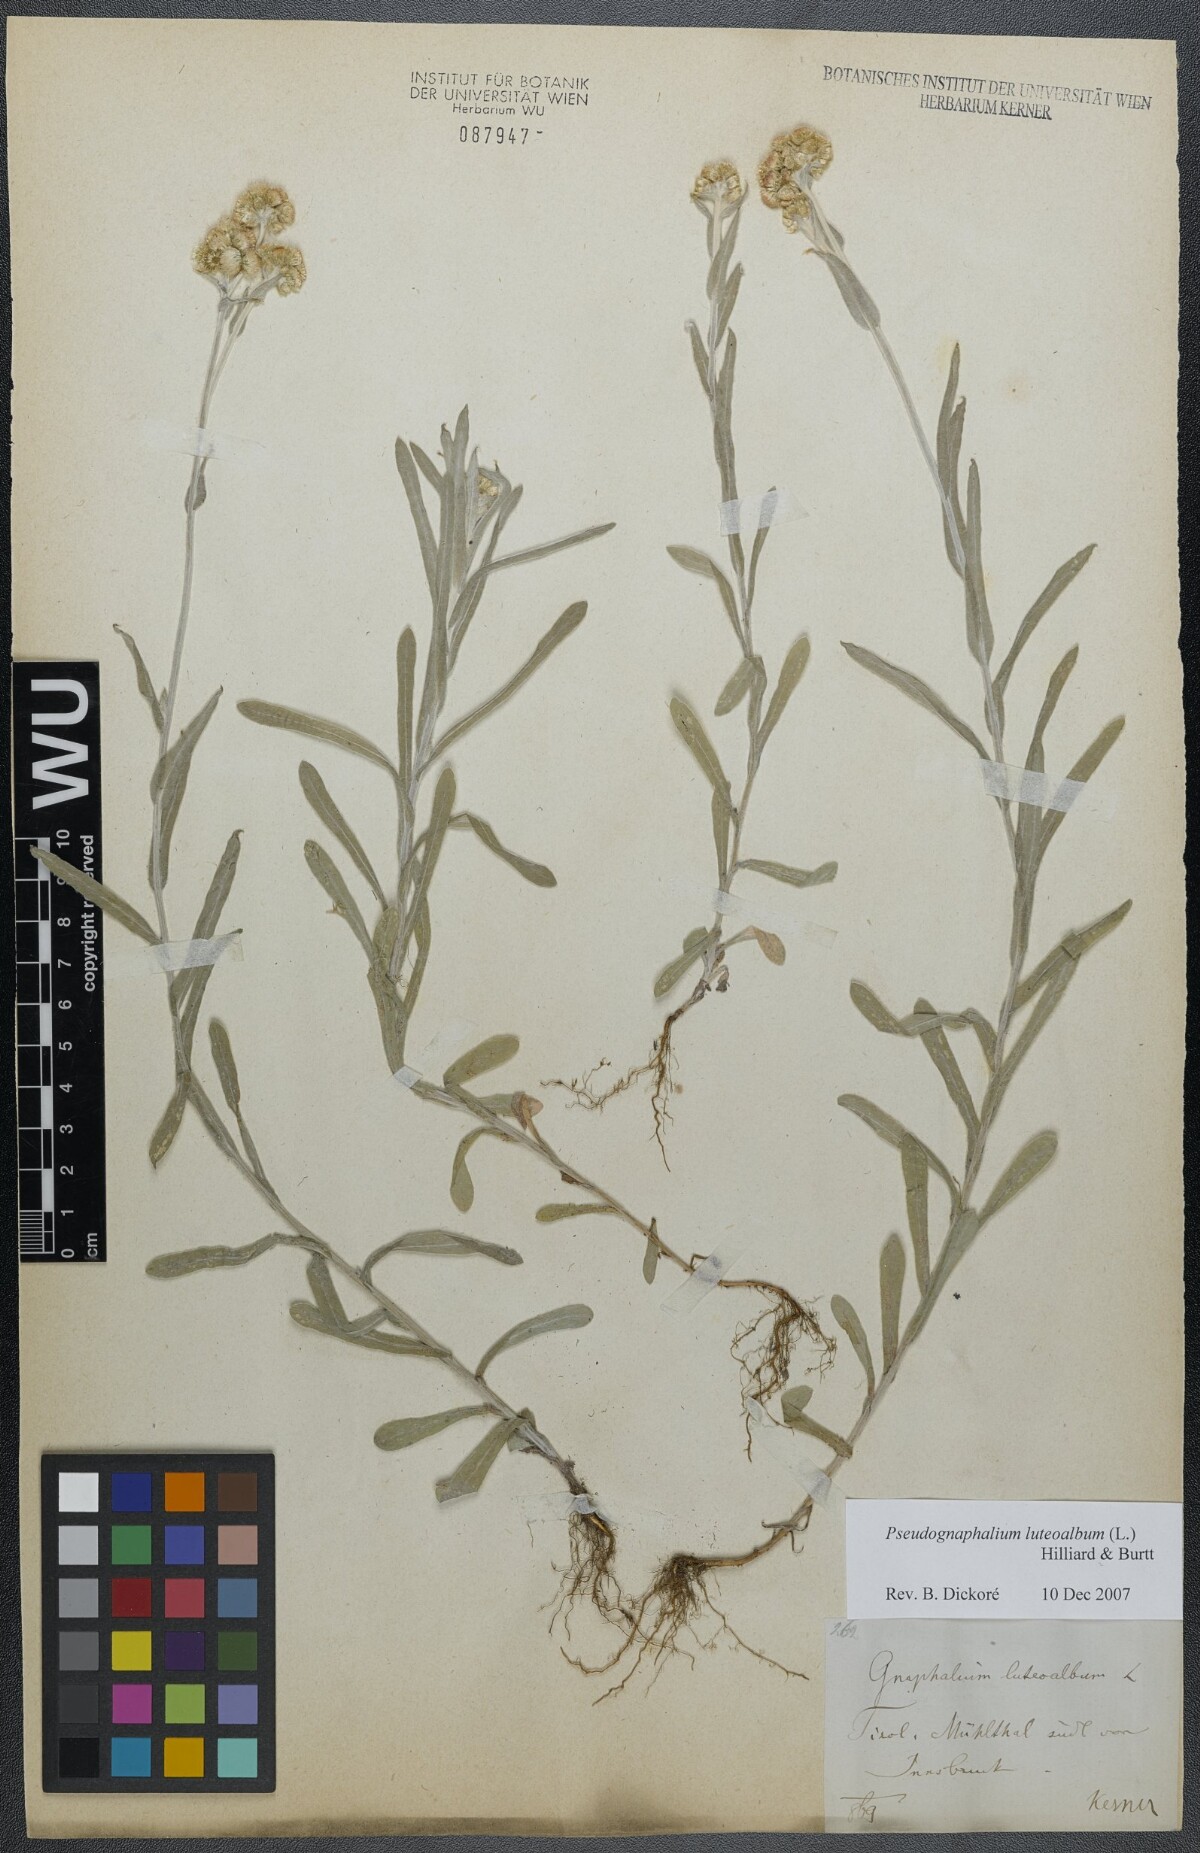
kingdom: Plantae
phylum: Tracheophyta
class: Magnoliopsida
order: Asterales
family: Asteraceae
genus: Helichrysum
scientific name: Helichrysum luteoalbum
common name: Daisy
